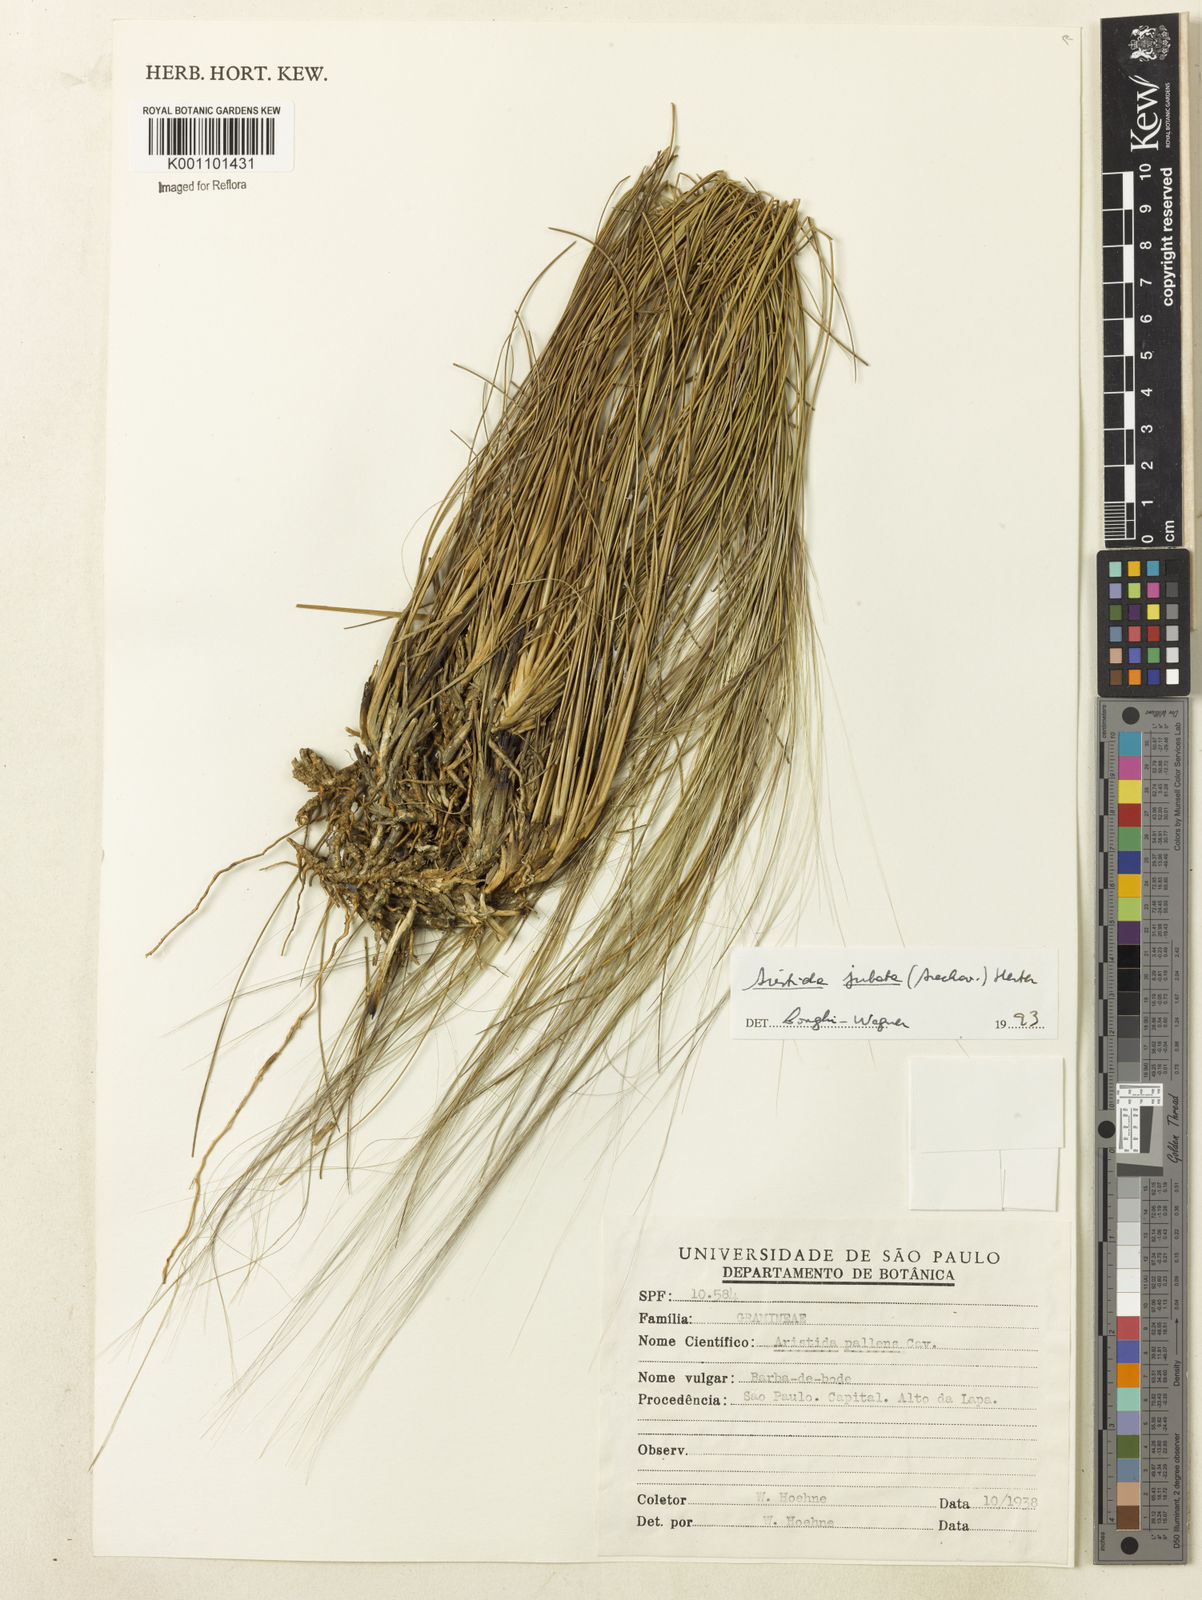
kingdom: Plantae
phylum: Tracheophyta
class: Liliopsida
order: Poales
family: Poaceae
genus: Aristida
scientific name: Aristida jubata
